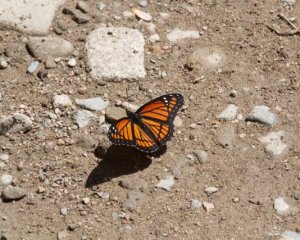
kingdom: Animalia
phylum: Arthropoda
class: Insecta
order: Lepidoptera
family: Nymphalidae
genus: Limenitis
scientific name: Limenitis archippus
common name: Viceroy
